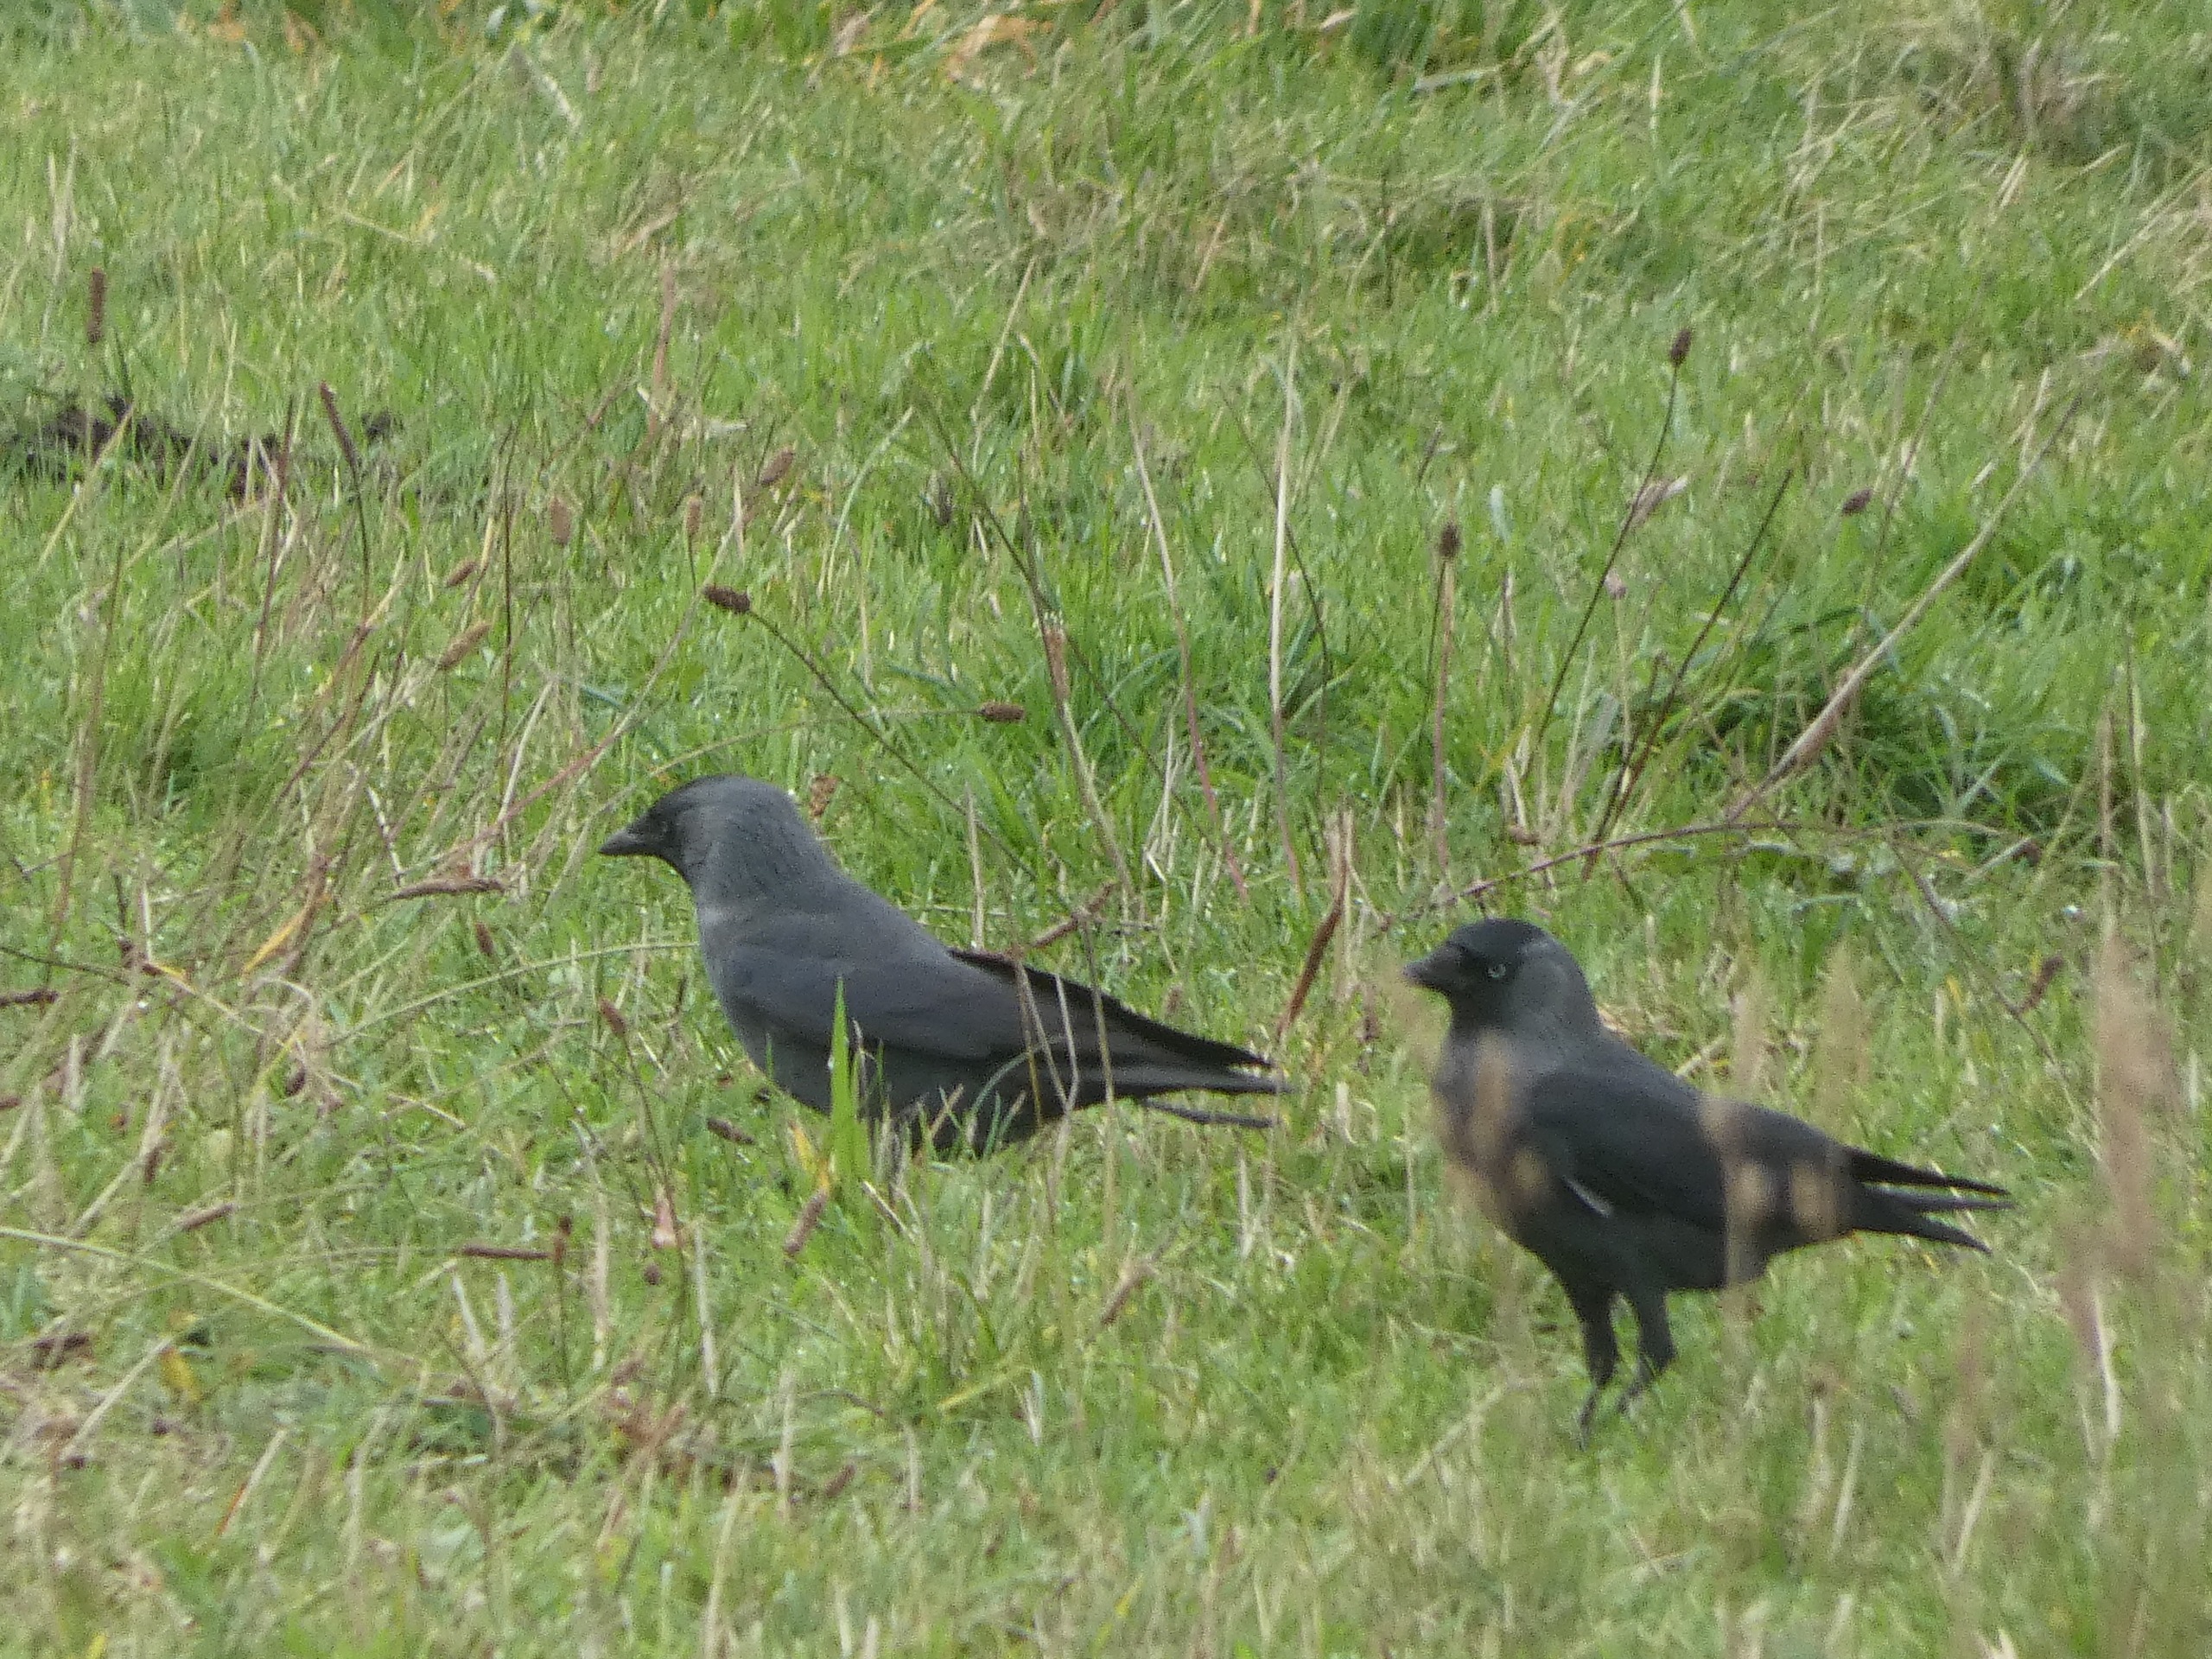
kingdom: Animalia
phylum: Chordata
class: Aves
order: Passeriformes
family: Corvidae
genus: Coloeus
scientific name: Coloeus monedula
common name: Allike
